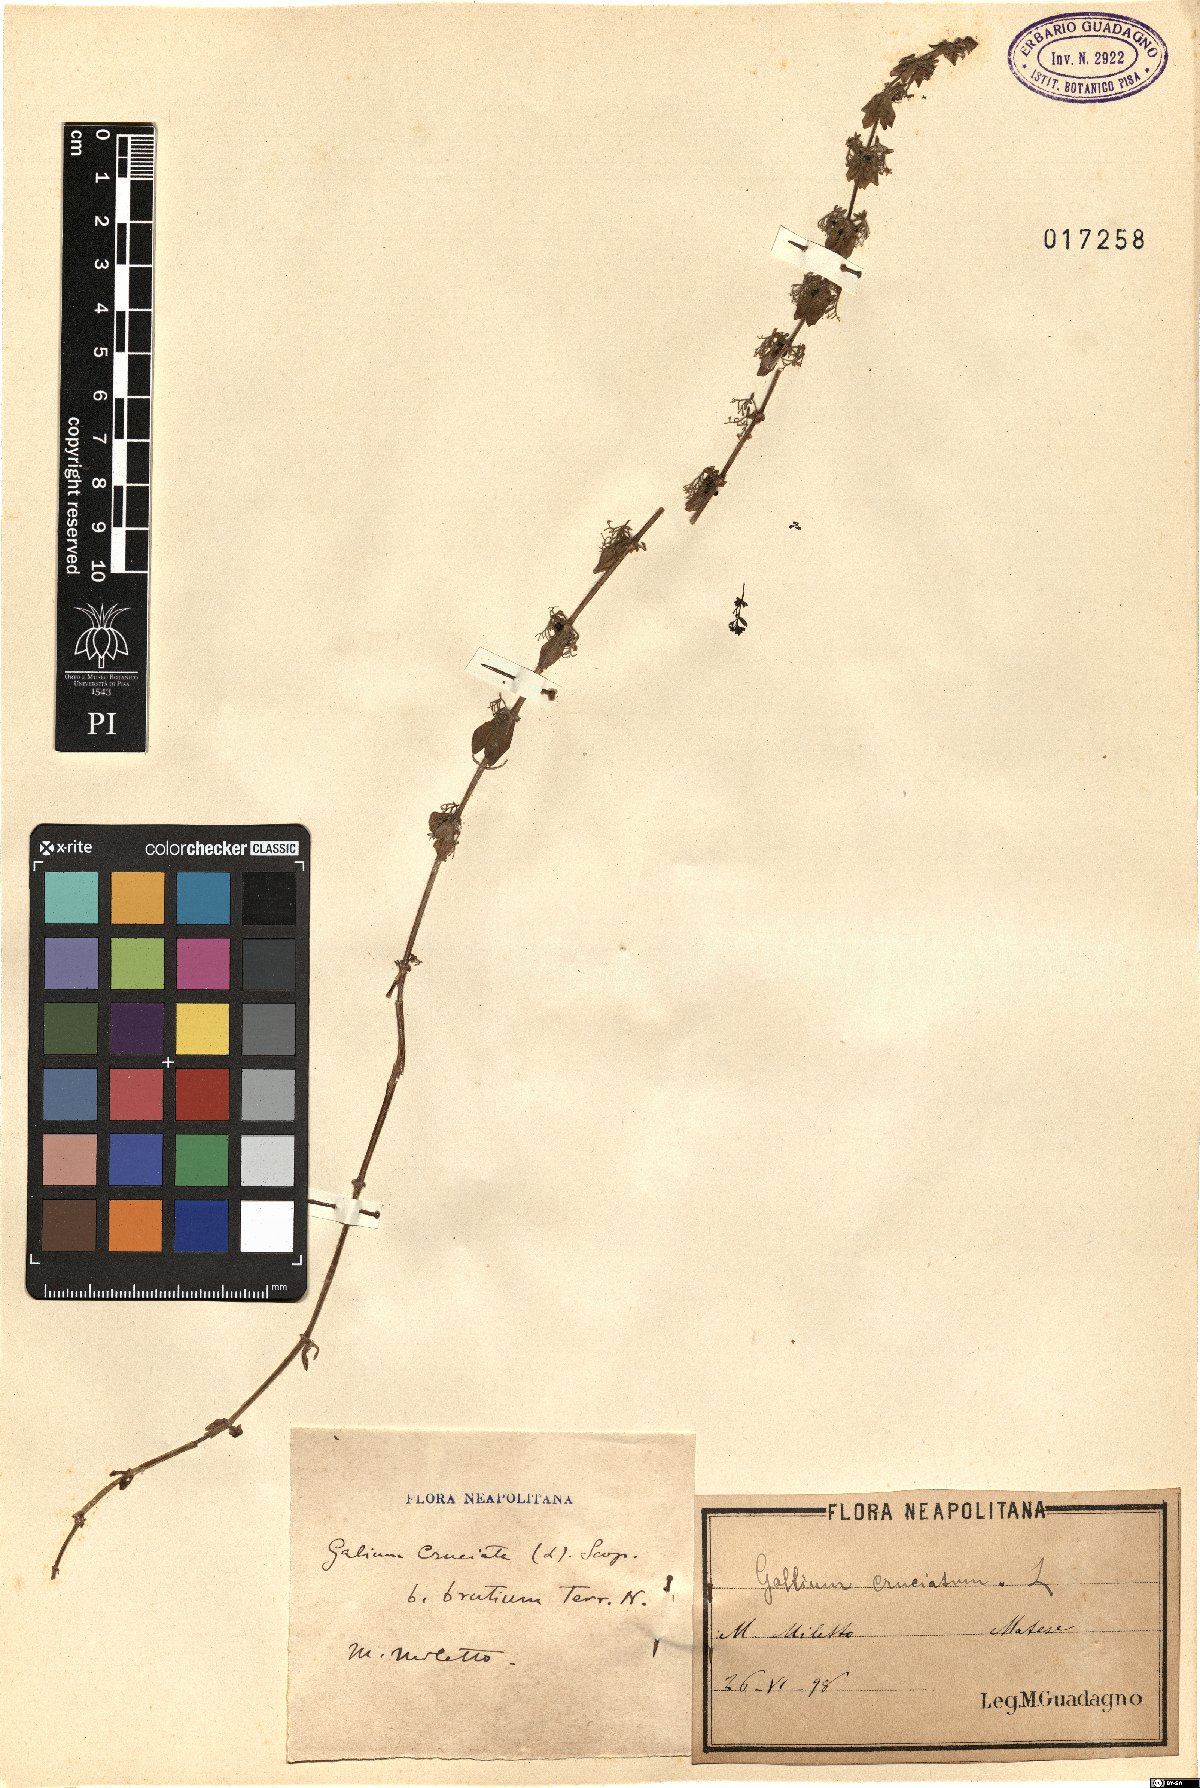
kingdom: Plantae
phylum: Tracheophyta
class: Magnoliopsida
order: Gentianales
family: Rubiaceae
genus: Cruciata
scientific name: Cruciata laevipes
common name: Crosswort
